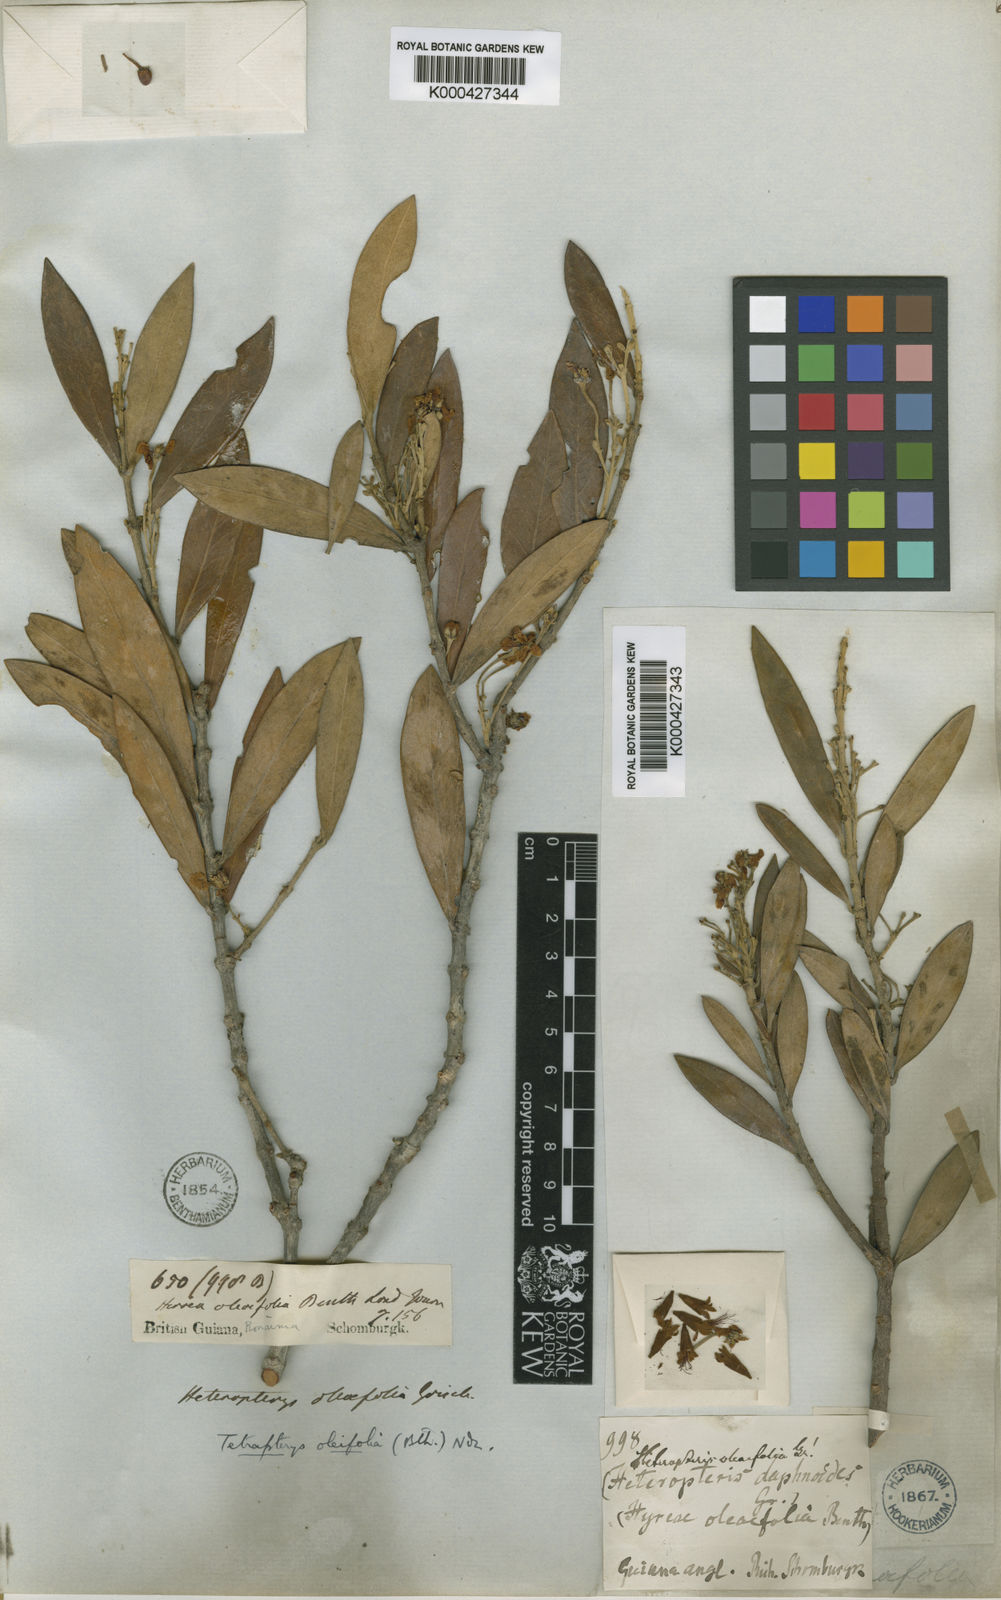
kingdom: Plantae
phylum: Tracheophyta
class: Magnoliopsida
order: Malpighiales
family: Malpighiaceae
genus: Tetrapterys
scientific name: Tetrapterys
